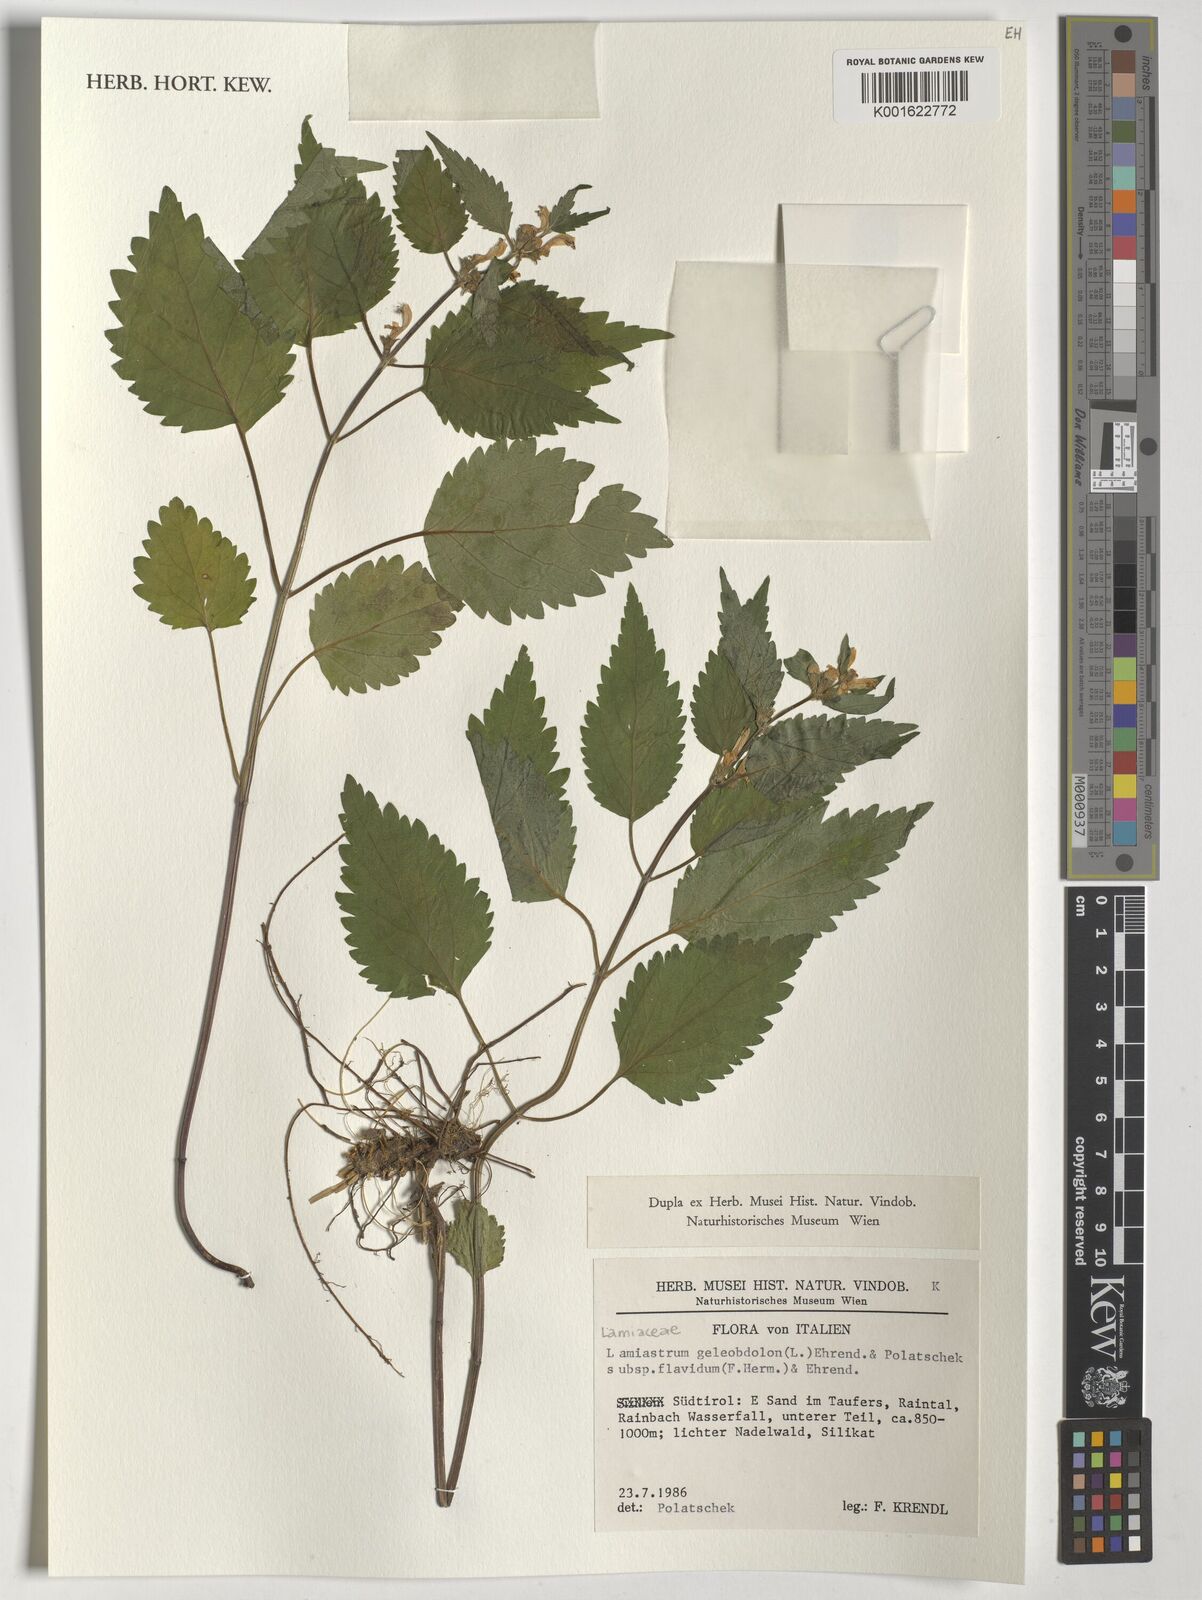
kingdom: Plantae
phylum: Tracheophyta
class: Magnoliopsida
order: Lamiales
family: Lamiaceae
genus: Lamium
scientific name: Lamium
